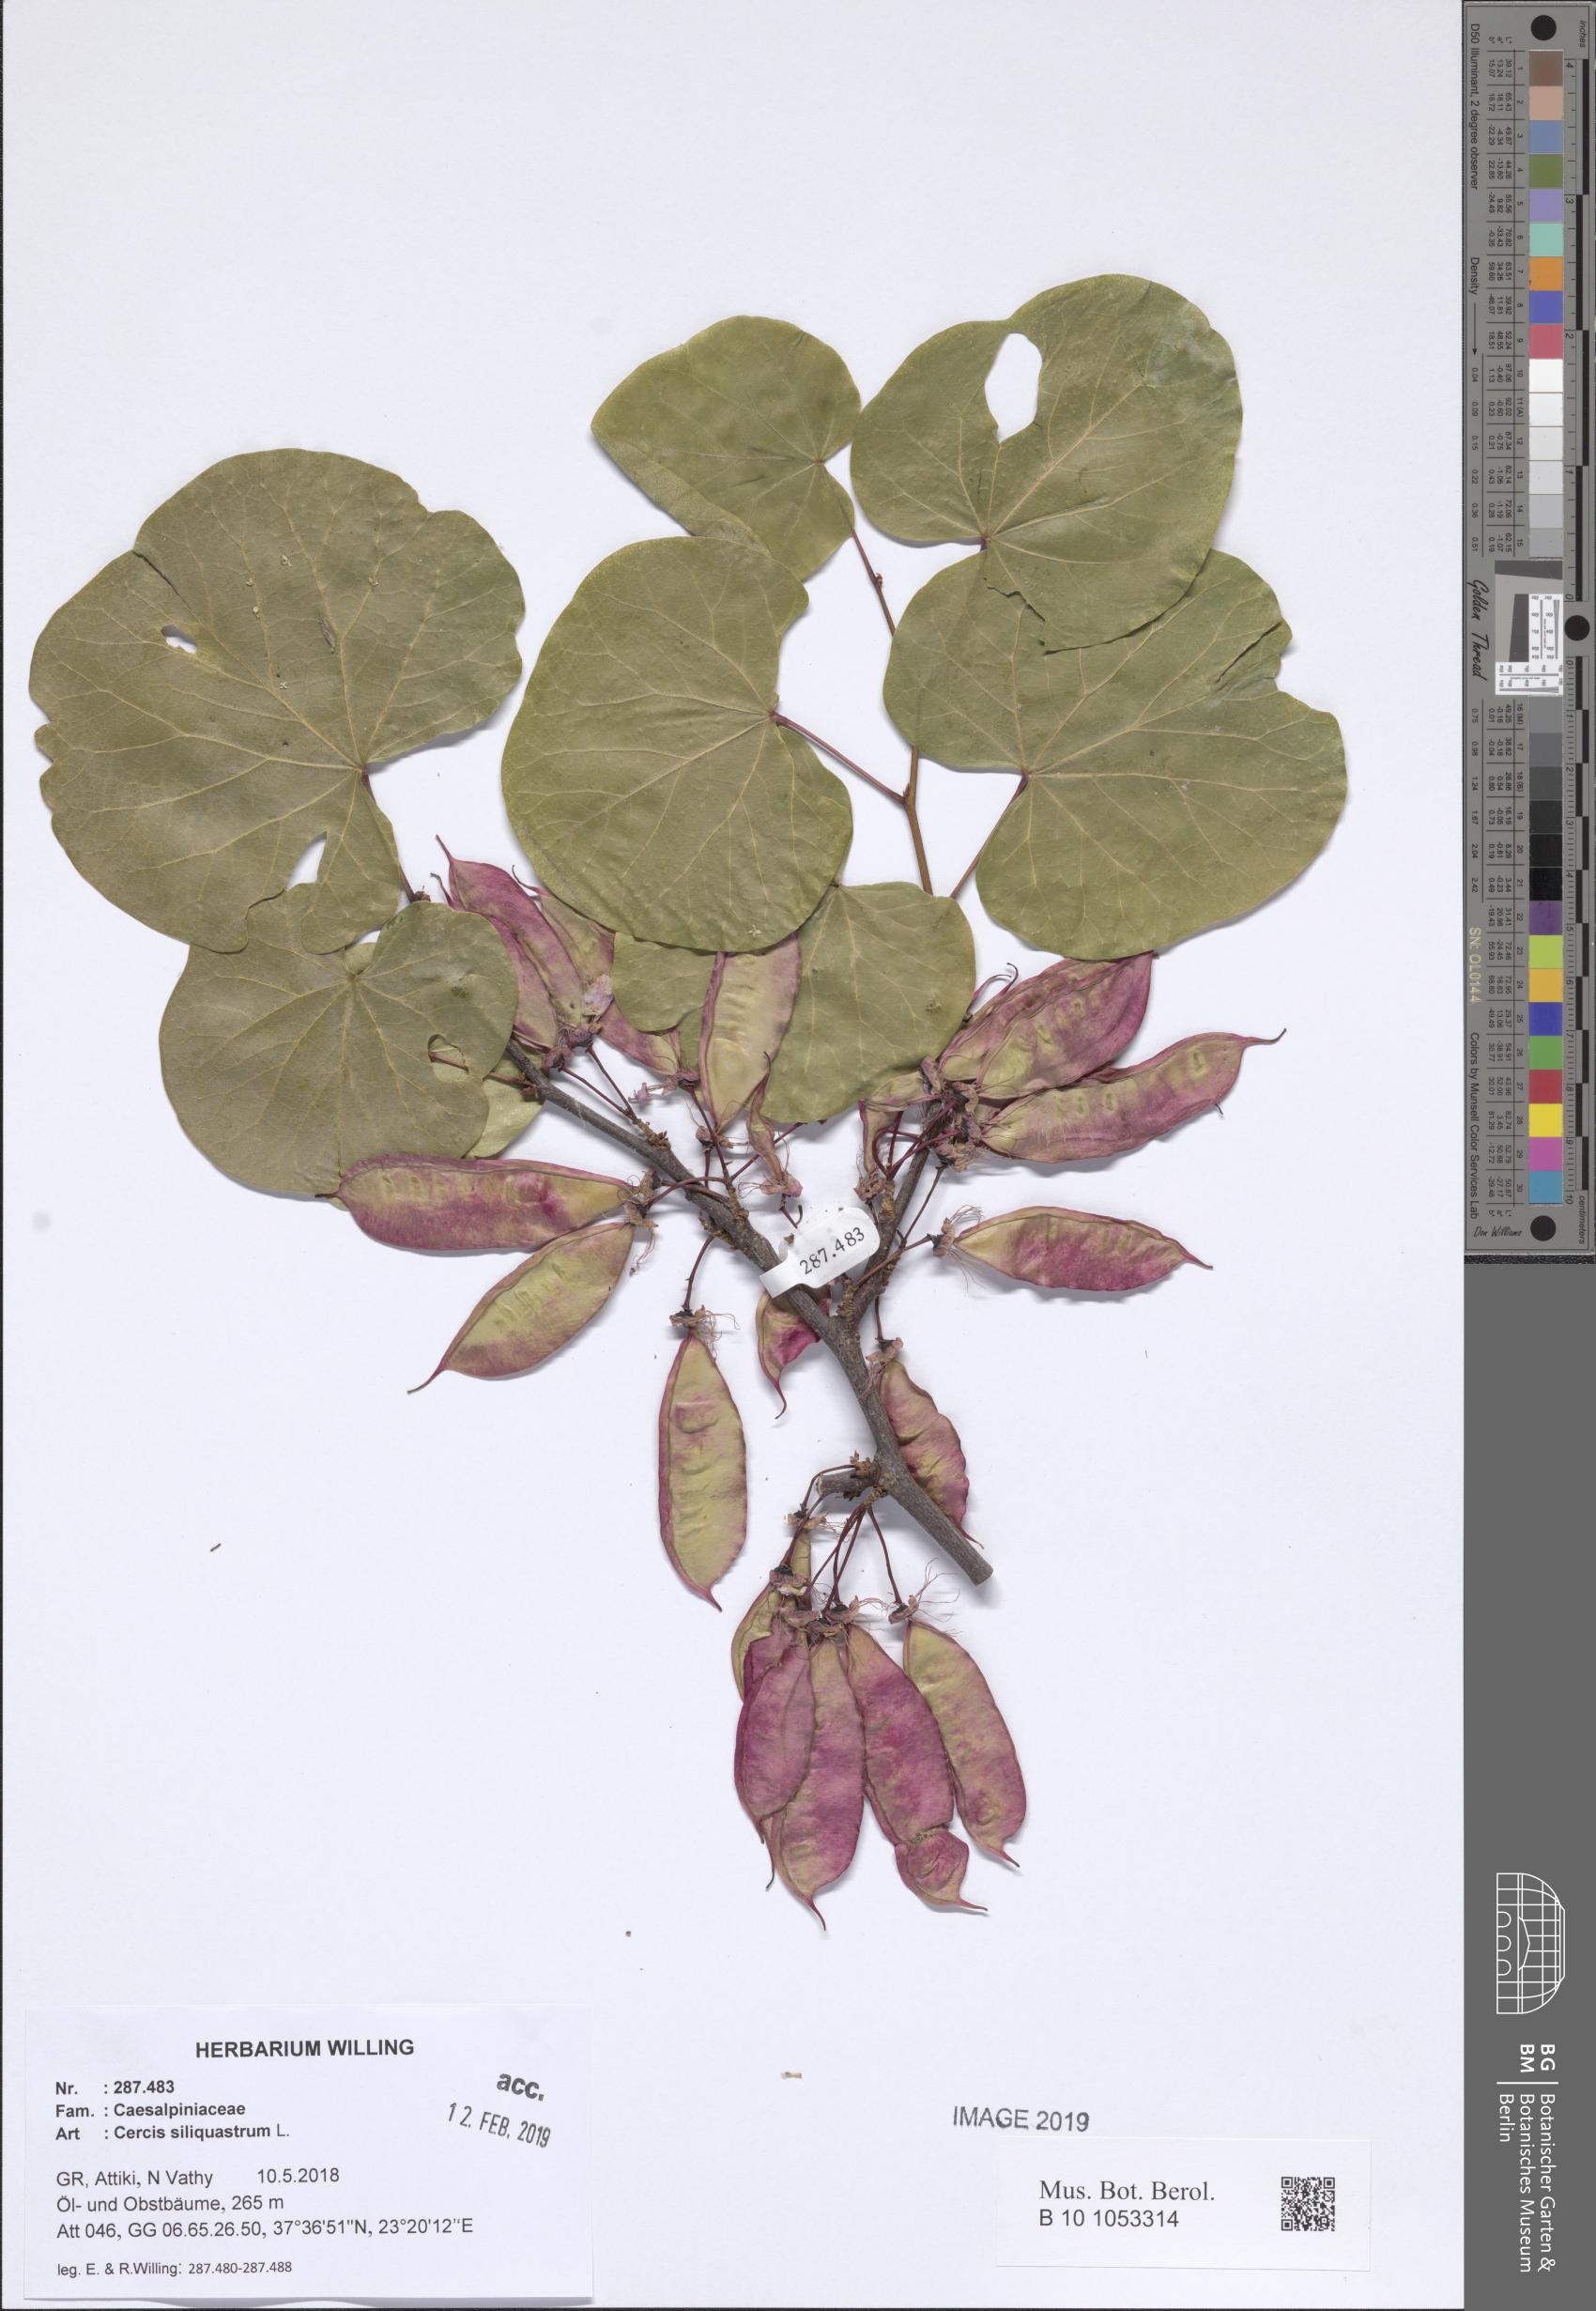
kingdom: Plantae
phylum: Tracheophyta
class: Magnoliopsida
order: Fabales
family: Fabaceae
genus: Cercis
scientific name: Cercis siliquastrum
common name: Judas tree
